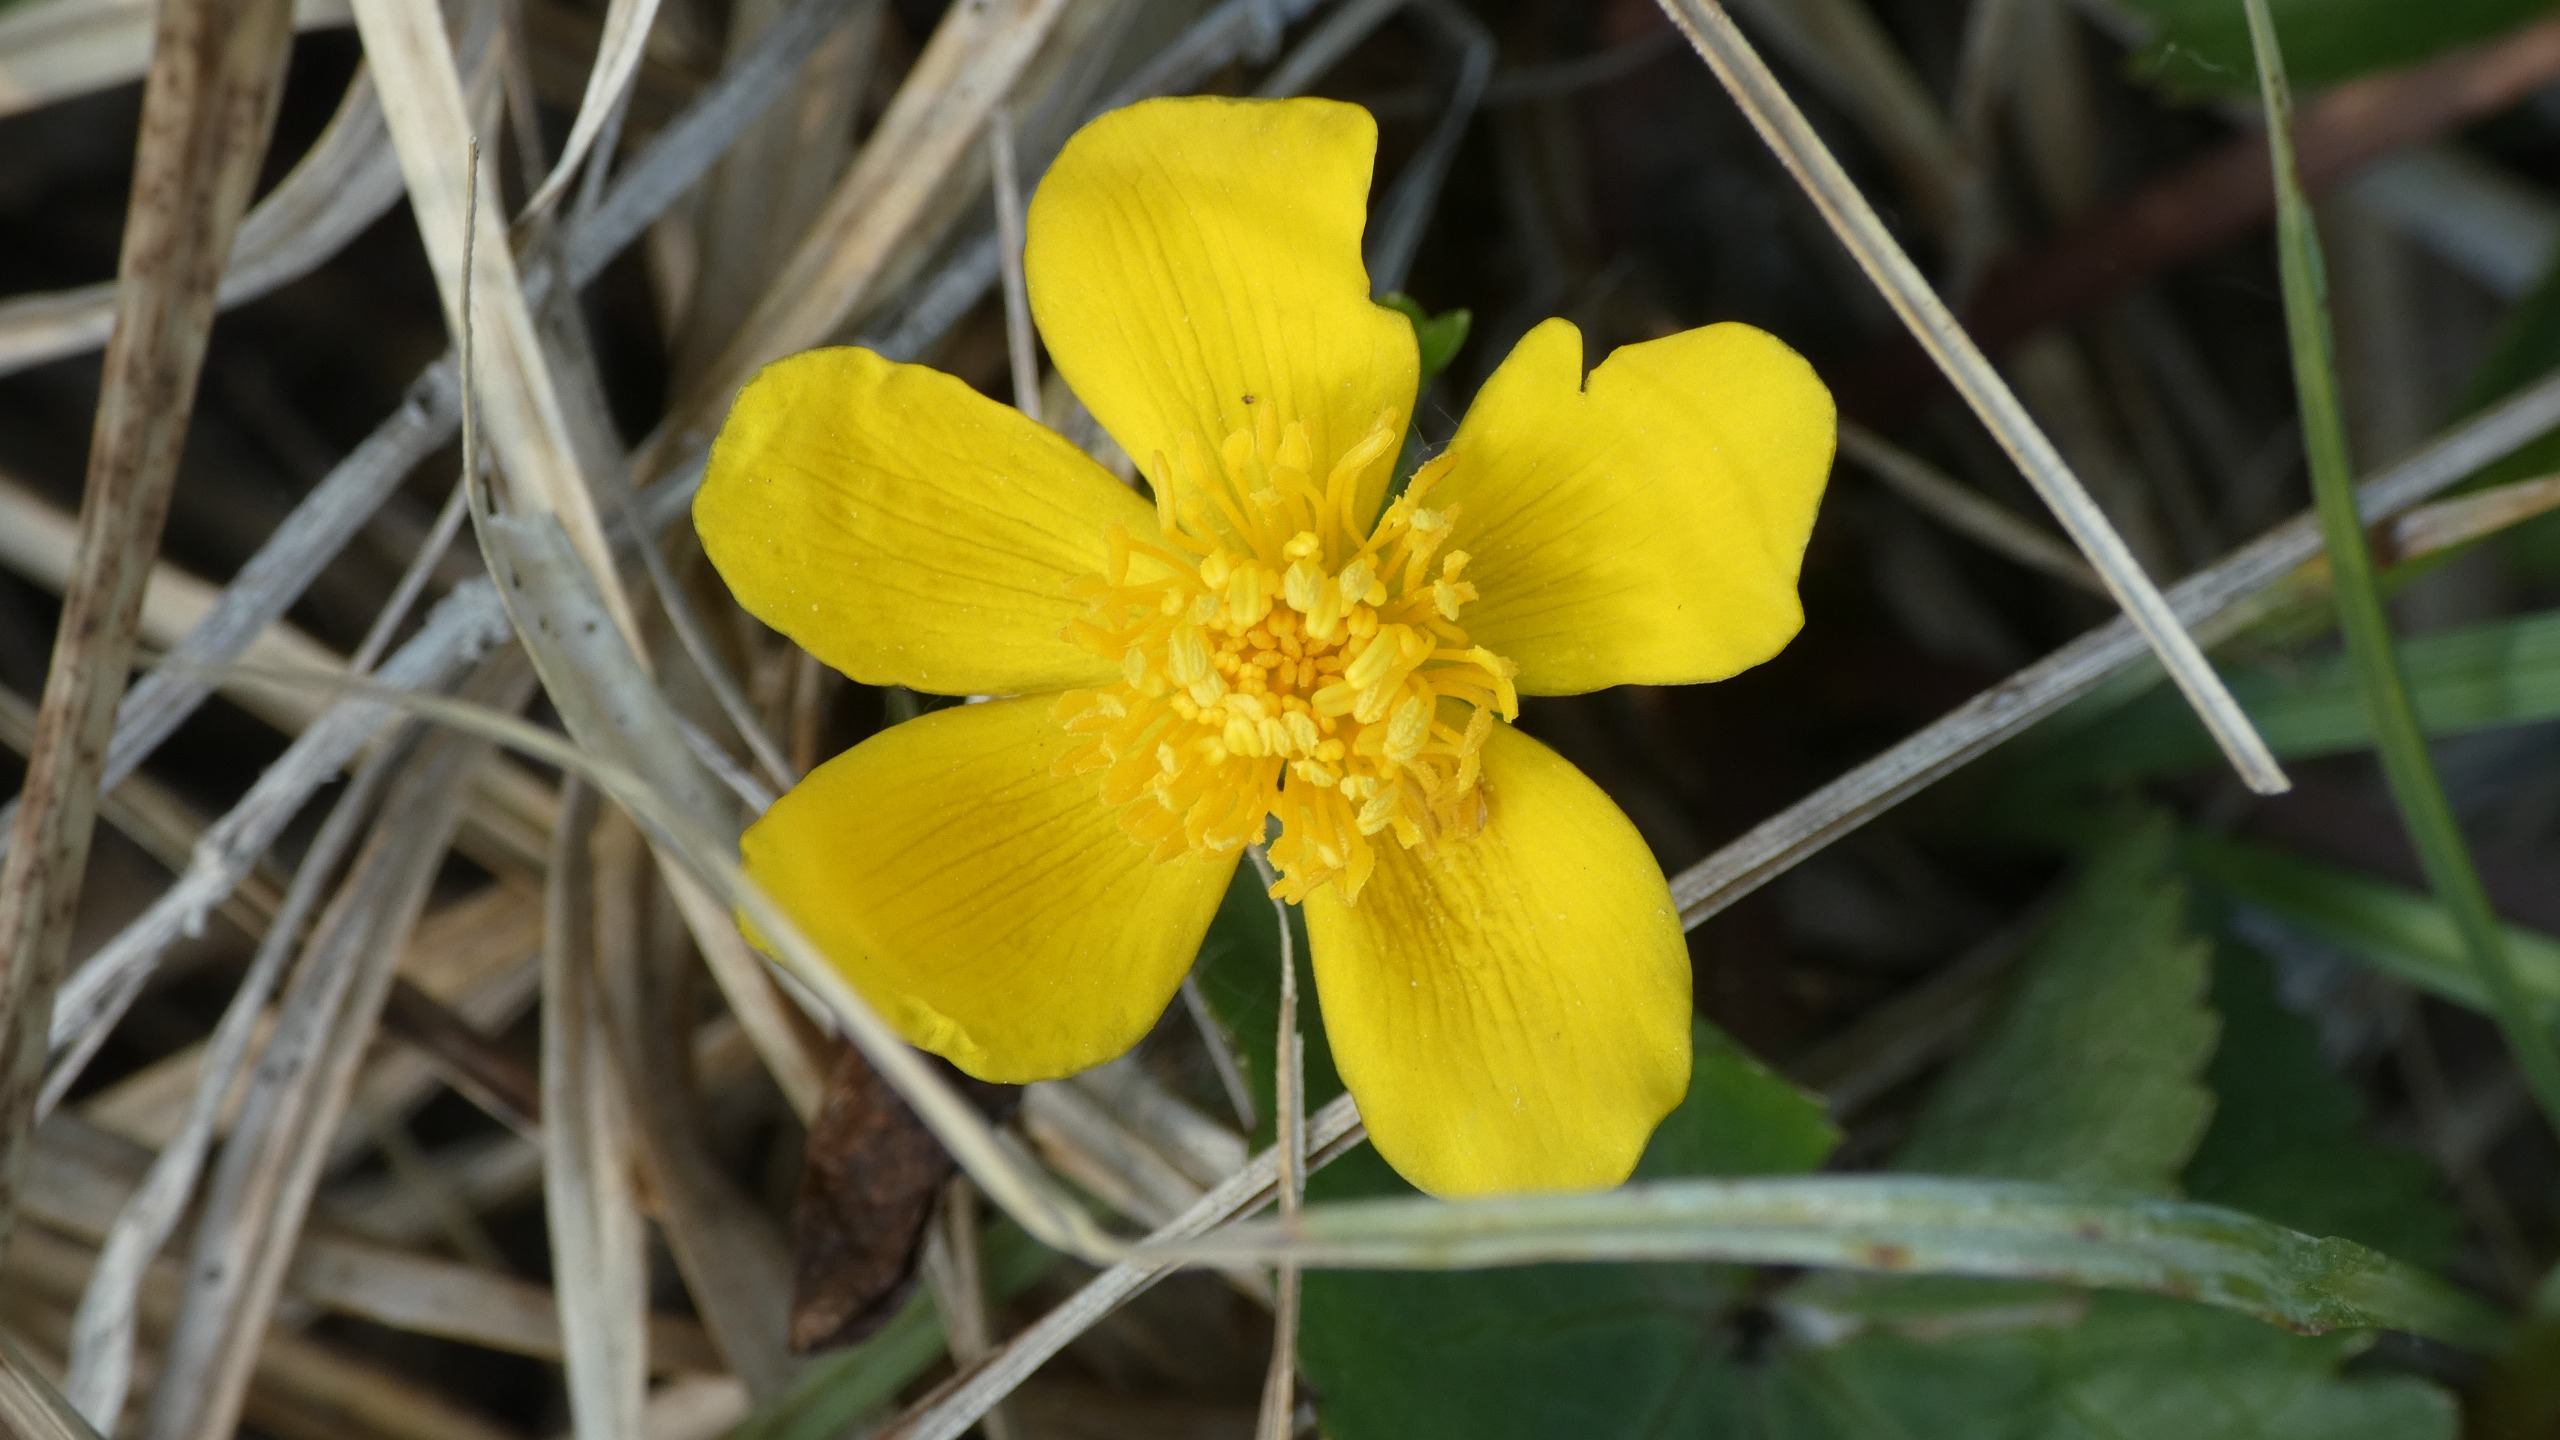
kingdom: Plantae
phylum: Tracheophyta
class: Magnoliopsida
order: Ranunculales
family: Ranunculaceae
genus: Caltha
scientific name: Caltha palustris
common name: Eng-kabbeleje
